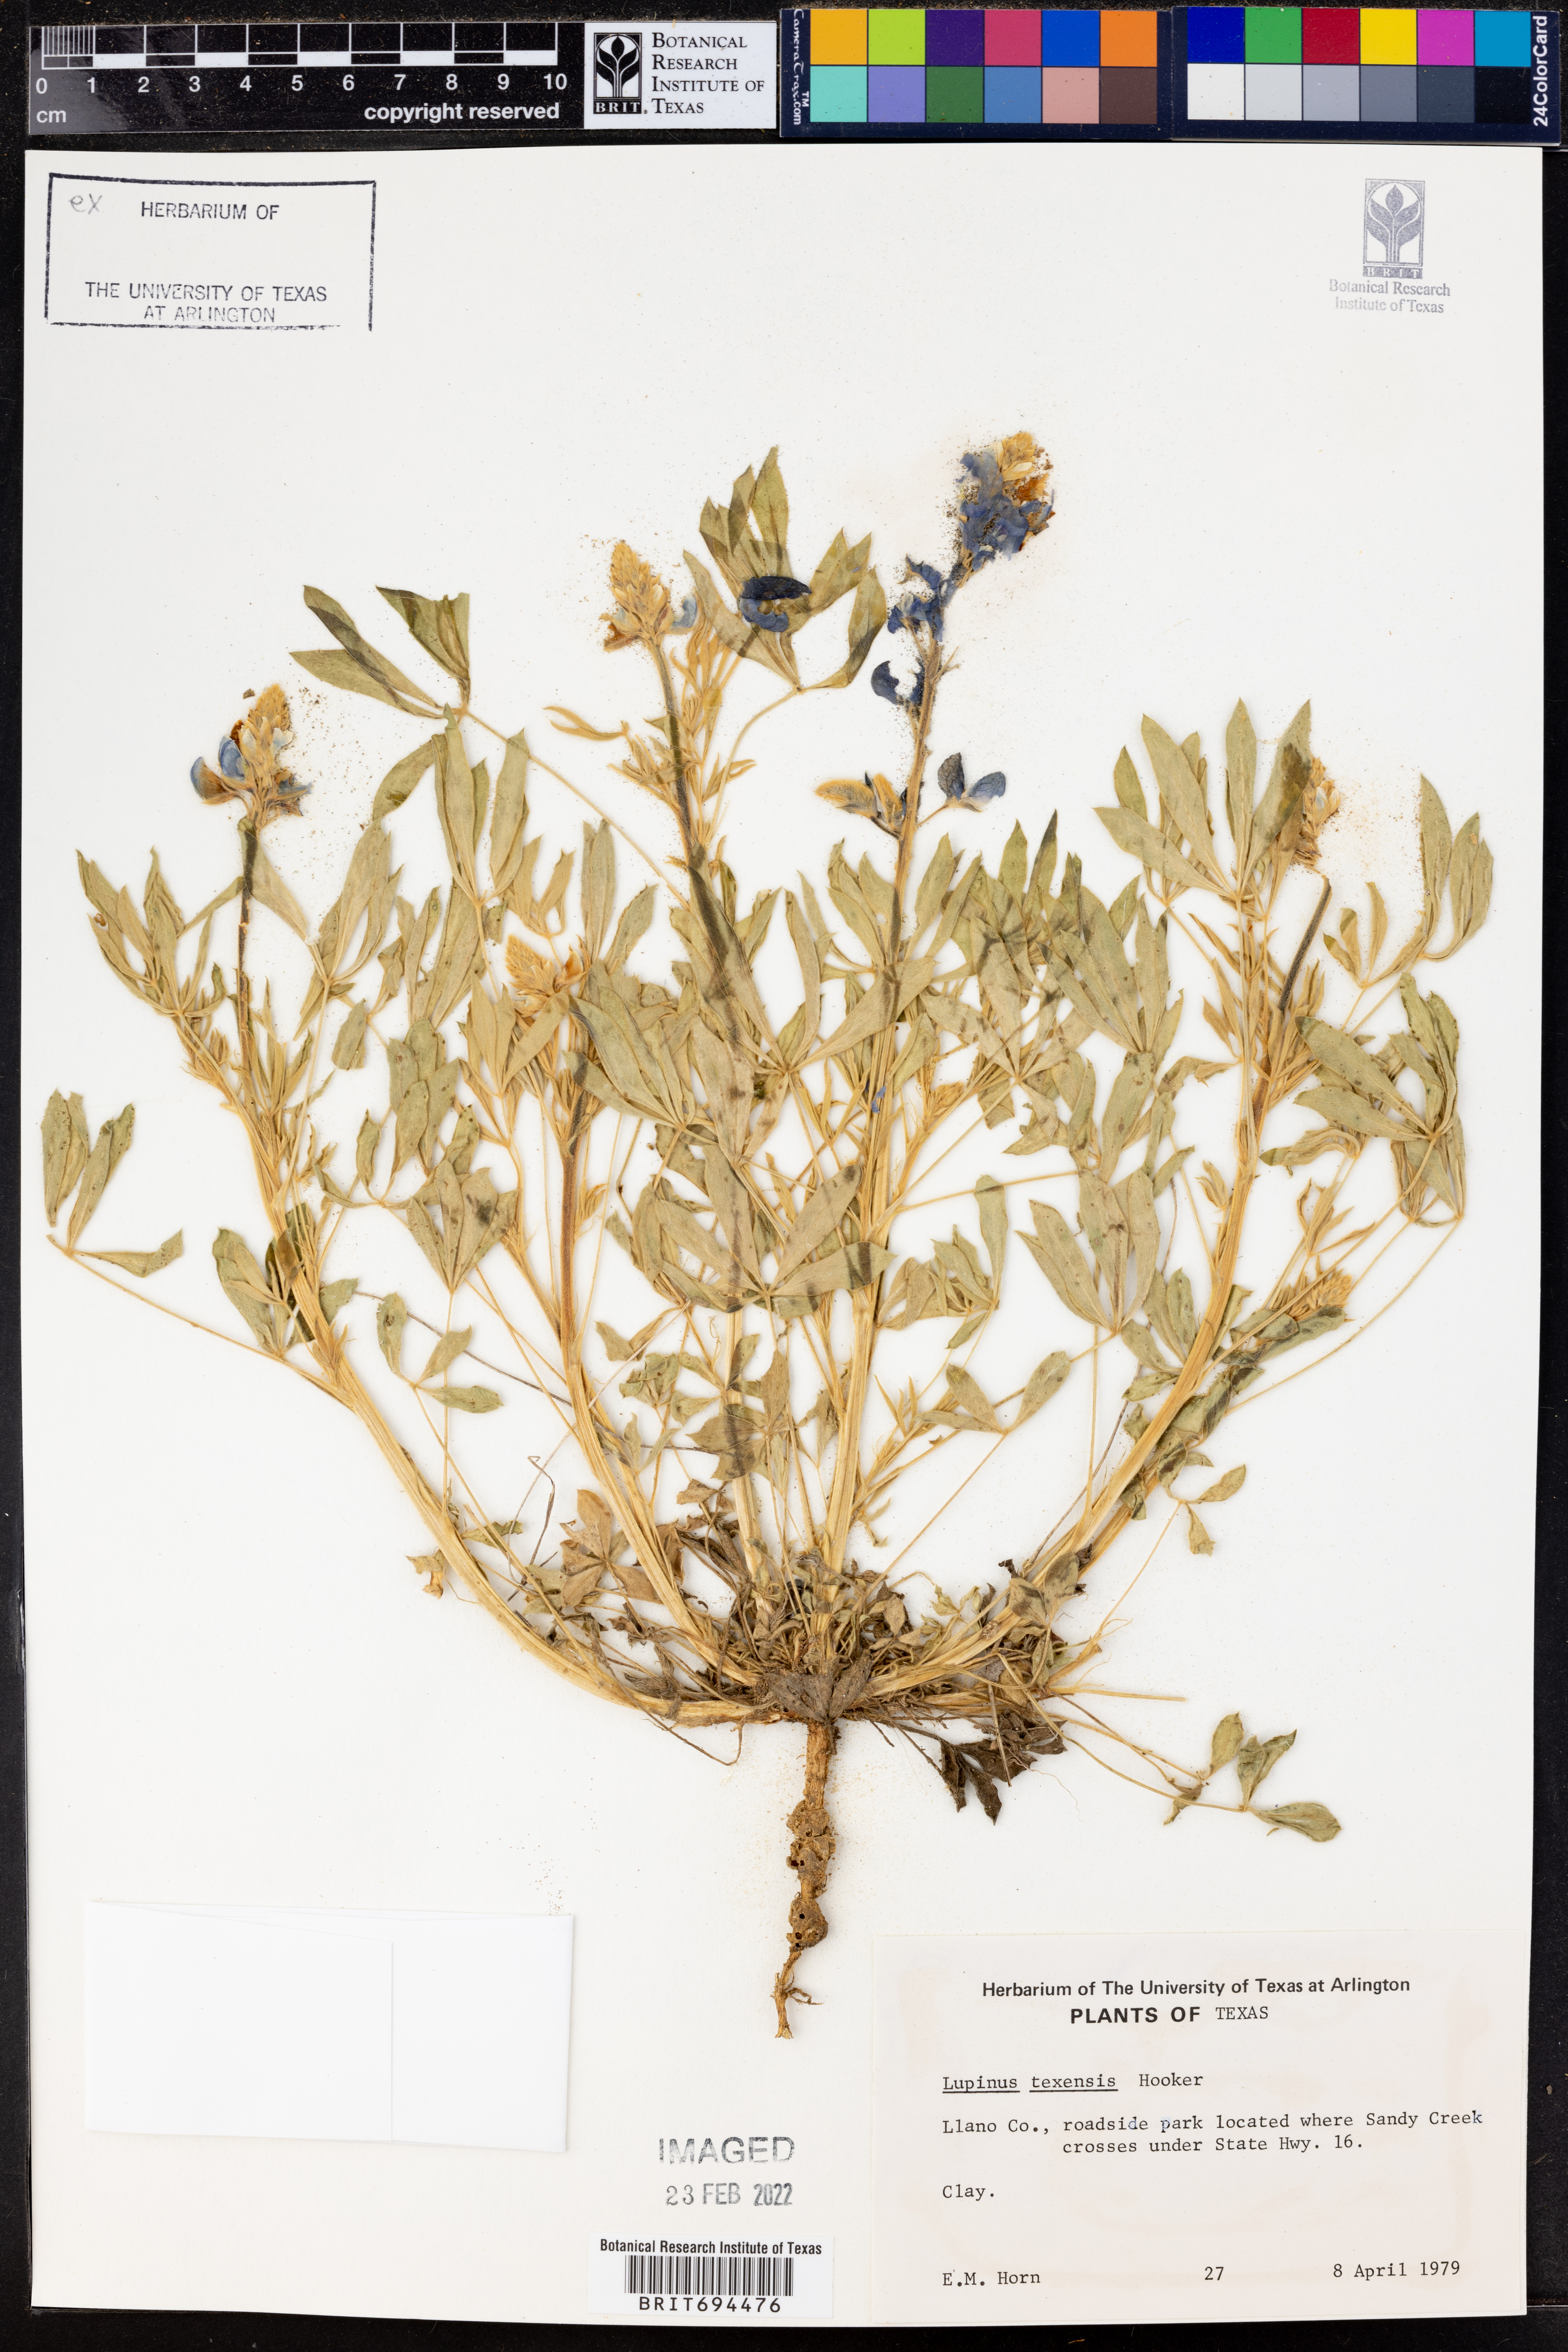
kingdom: Plantae
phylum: Tracheophyta
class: Magnoliopsida
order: Fabales
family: Fabaceae
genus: Lupinus
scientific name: Lupinus texensis
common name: Texas bluebonnet
